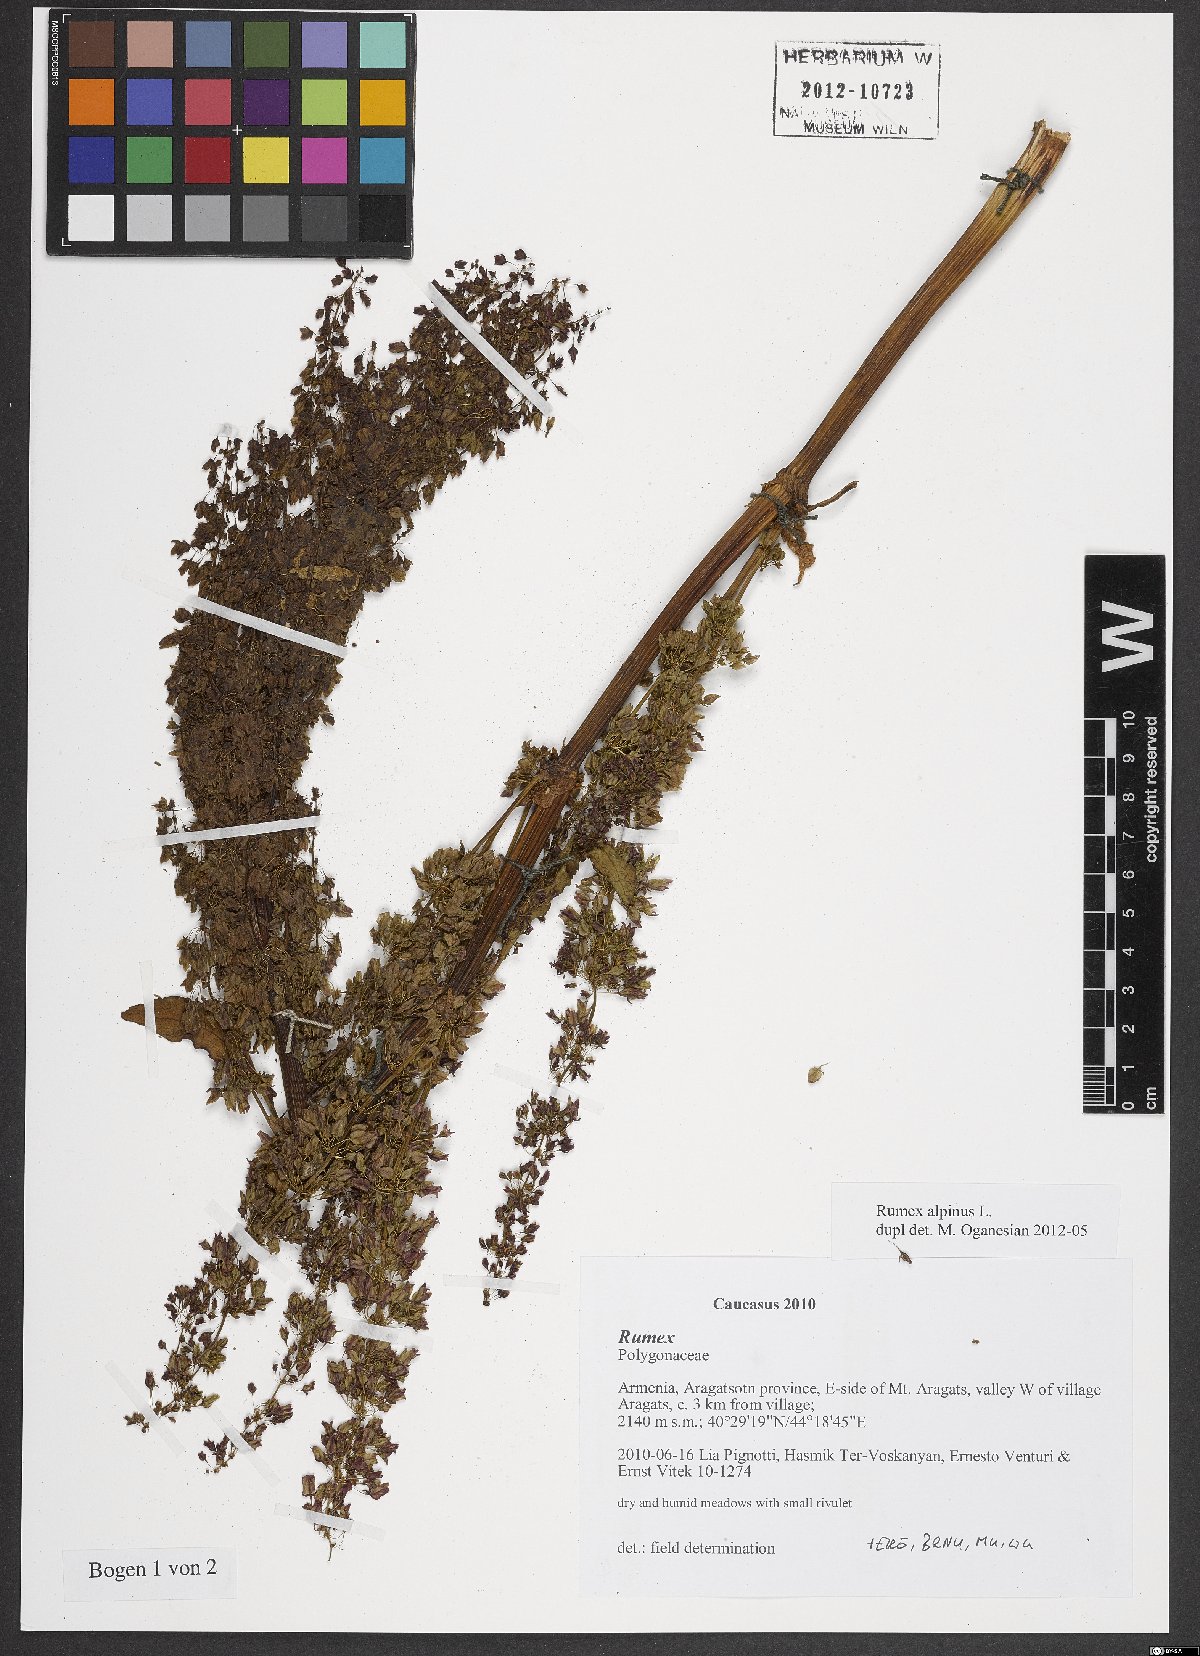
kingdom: Plantae
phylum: Tracheophyta
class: Magnoliopsida
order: Caryophyllales
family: Polygonaceae
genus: Rumex
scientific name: Rumex alpinus
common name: Alpine dock
